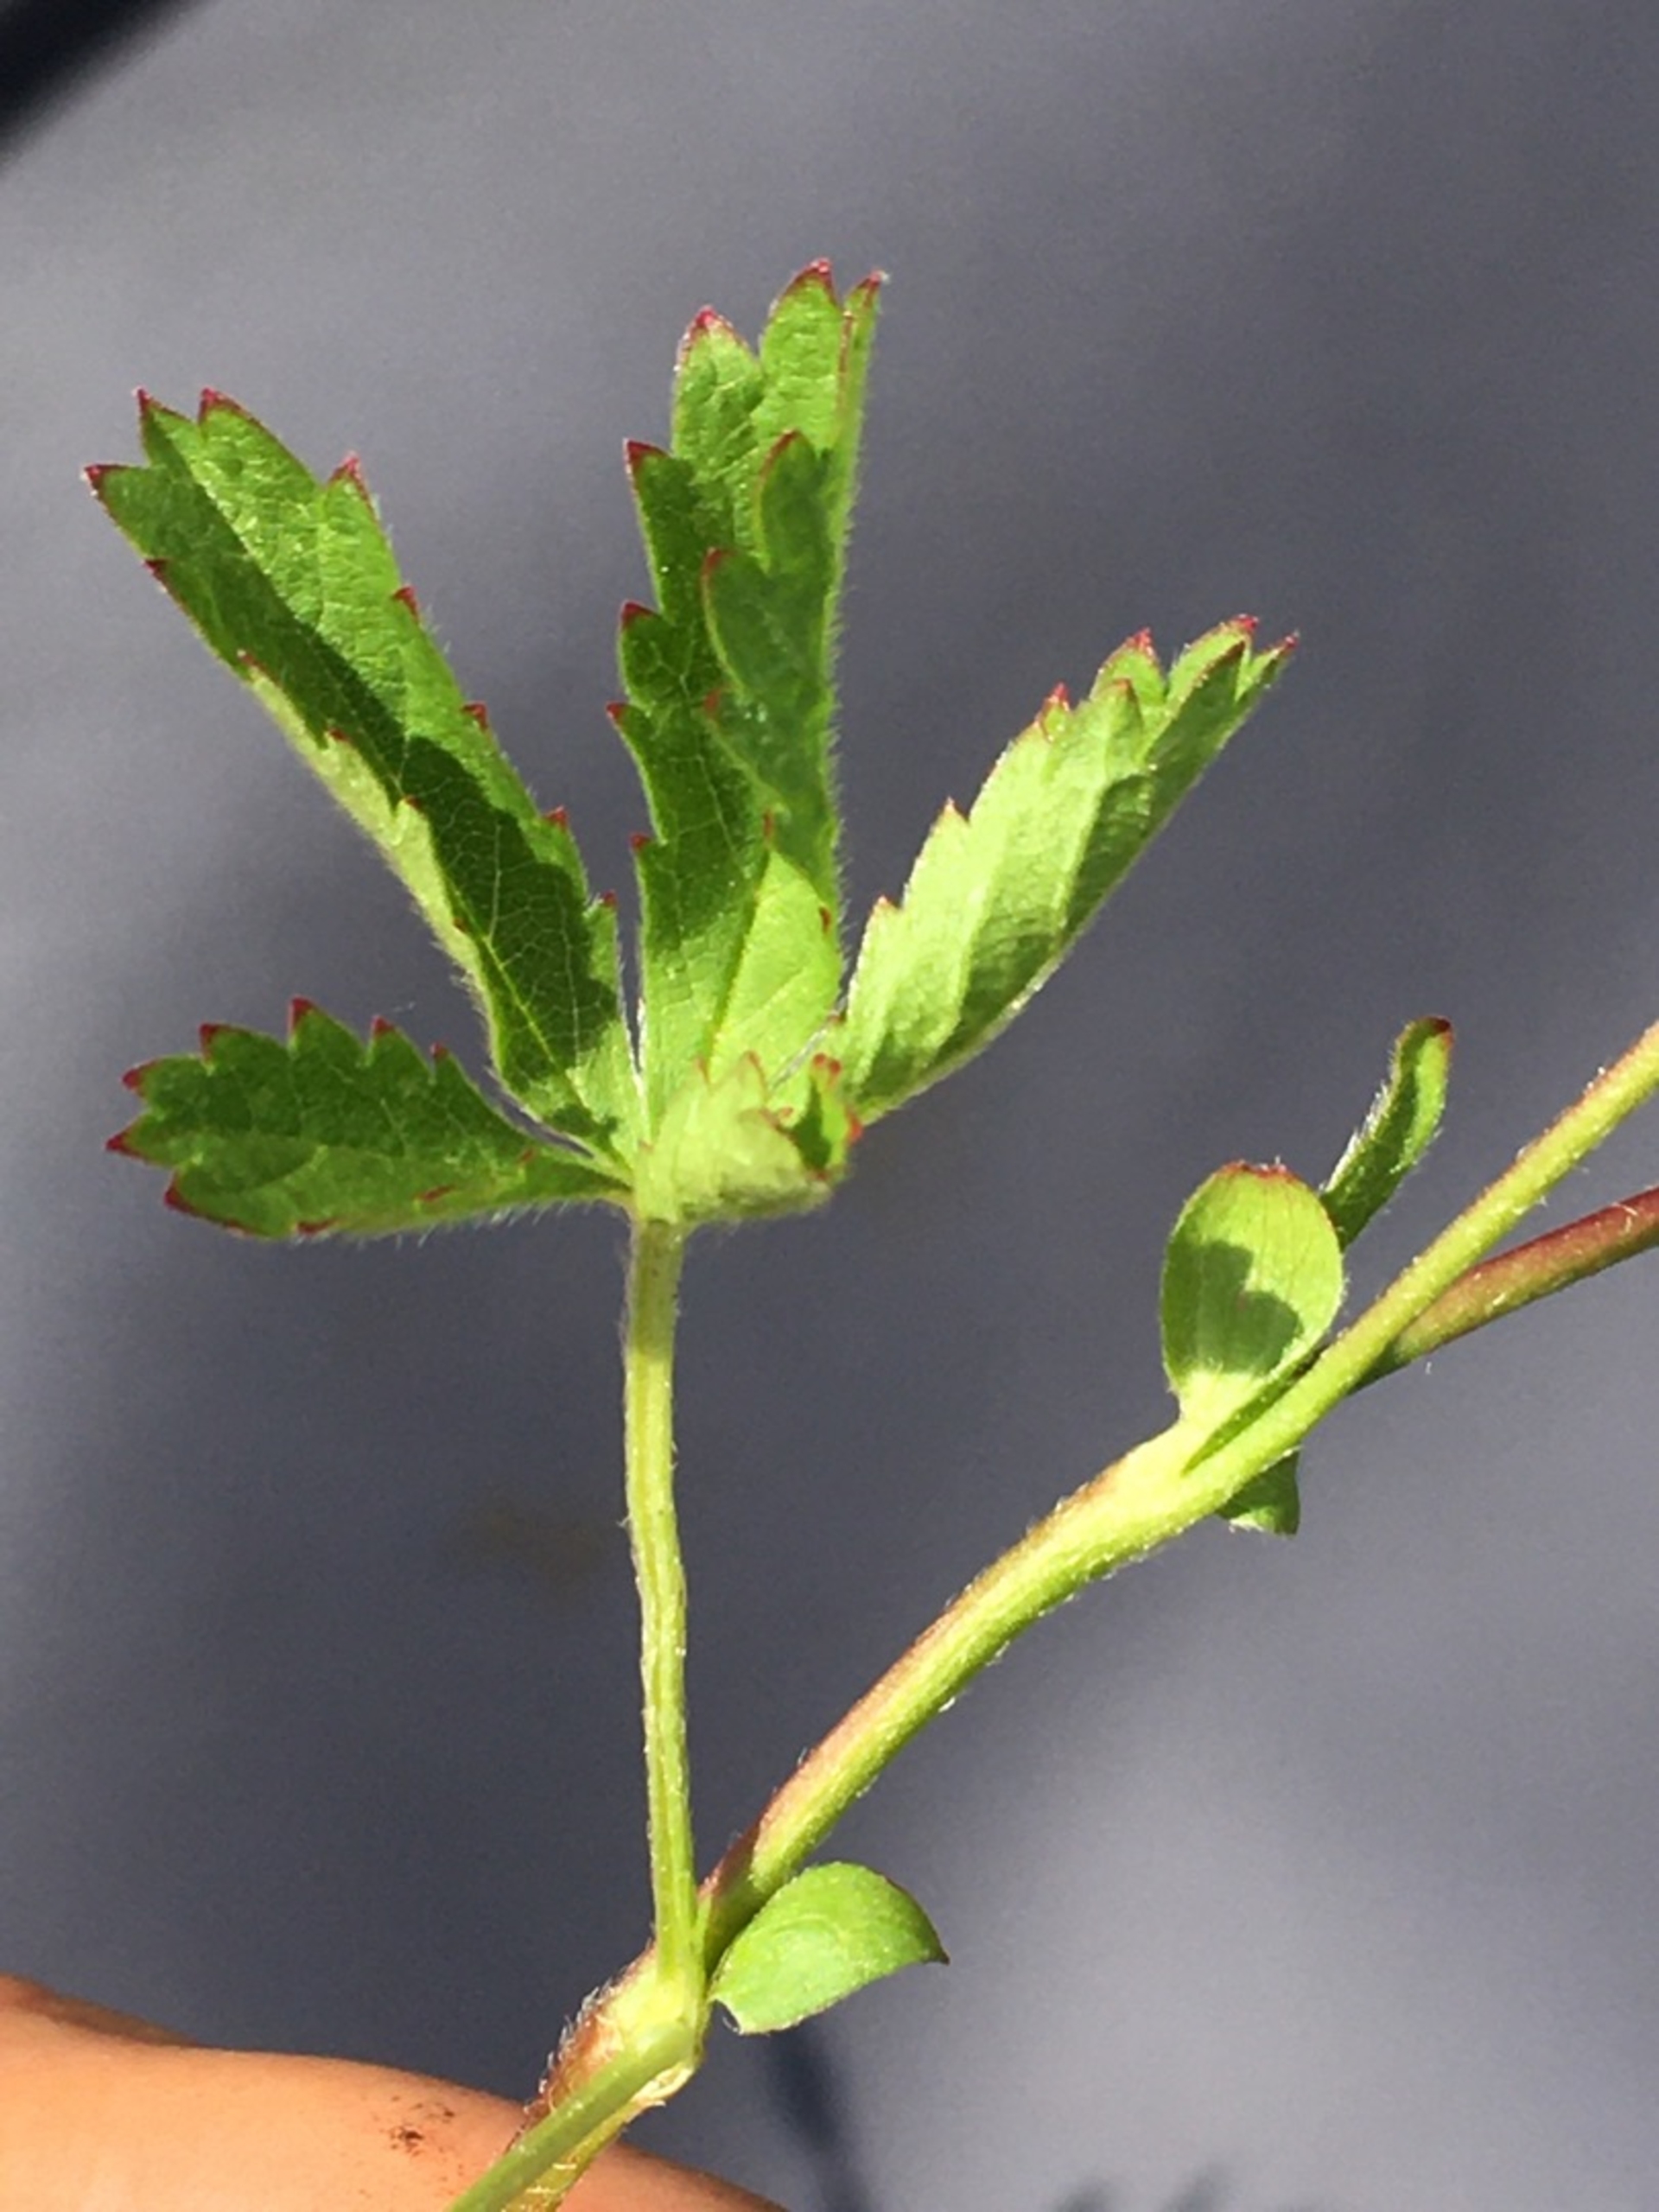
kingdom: Plantae
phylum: Tracheophyta
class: Magnoliopsida
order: Rosales
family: Rosaceae
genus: Potentilla
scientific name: Potentilla reptans
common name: Krybende potentil
